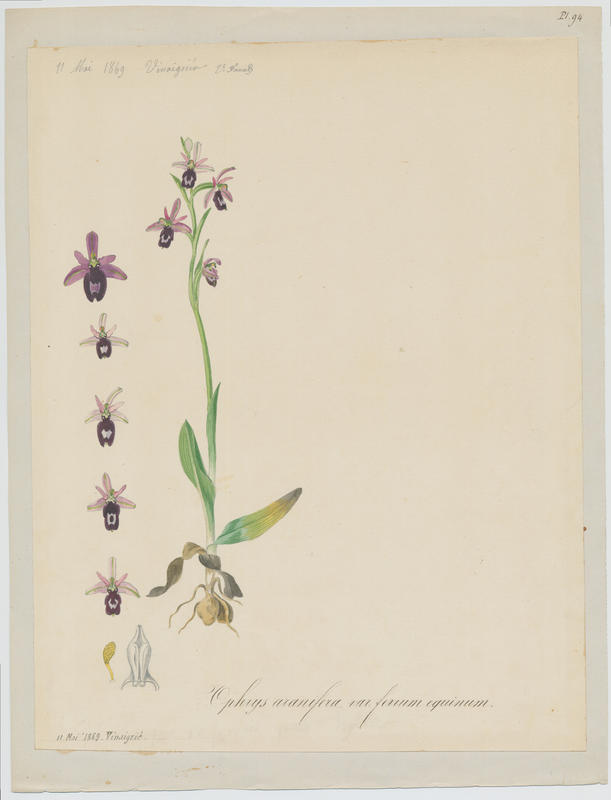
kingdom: Plantae
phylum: Tracheophyta
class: Liliopsida
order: Asparagales
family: Orchidaceae
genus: Ophrys
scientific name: Ophrys sphegodes
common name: Early spider-orchid
